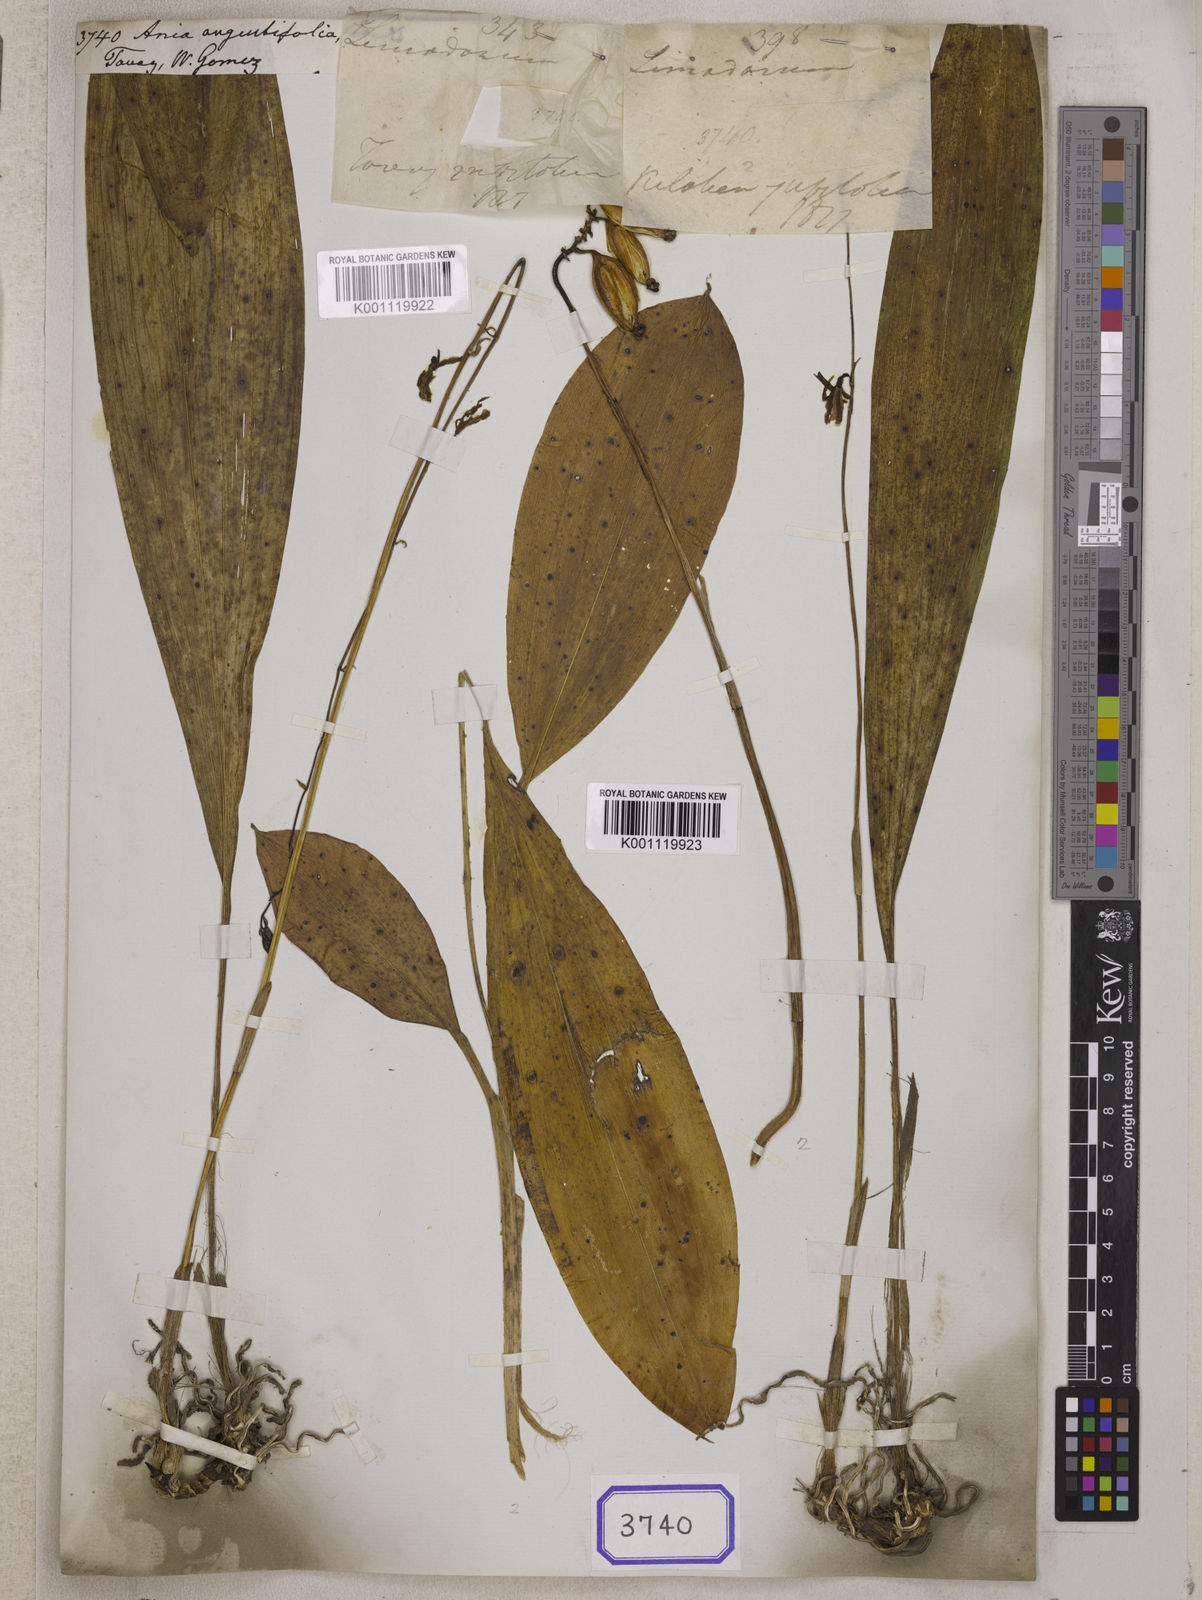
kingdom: Plantae
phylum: Tracheophyta
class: Liliopsida
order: Asparagales
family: Orchidaceae
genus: Ania
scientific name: Ania angustifolia
